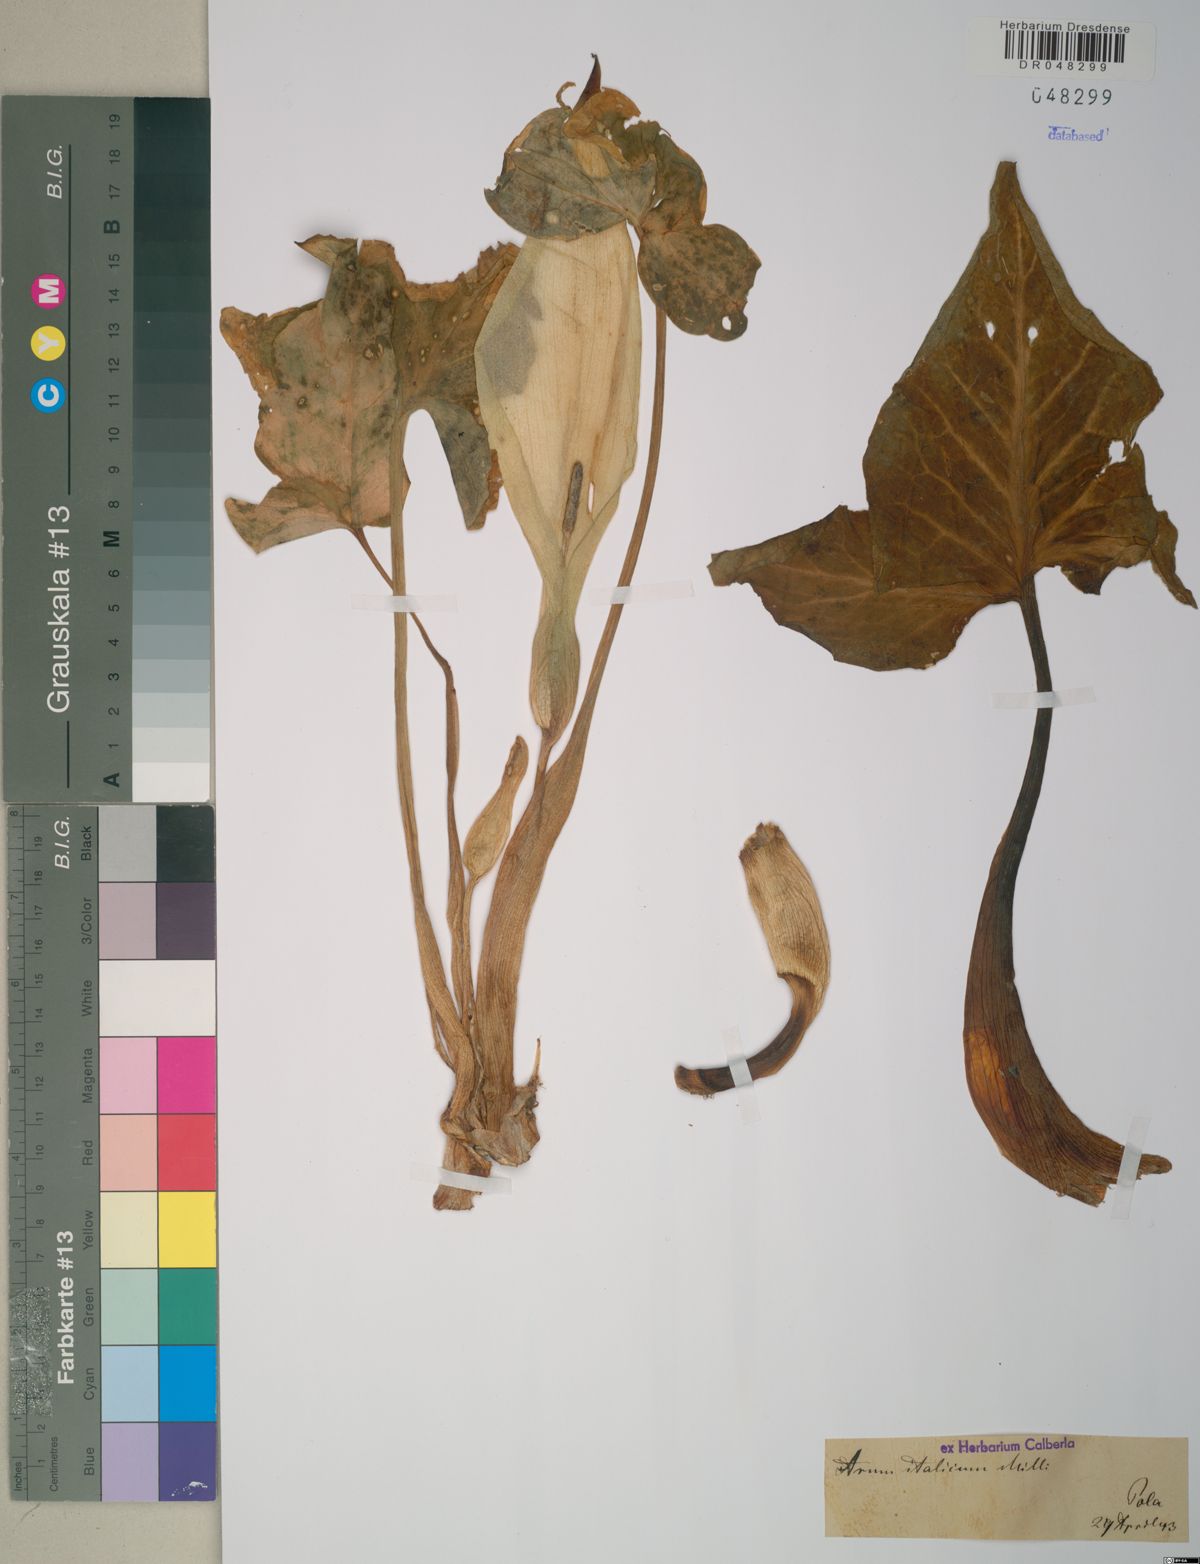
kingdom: Plantae
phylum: Tracheophyta
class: Liliopsida
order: Alismatales
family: Araceae
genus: Arum
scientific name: Arum italicum
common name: Italian lords-and-ladies
